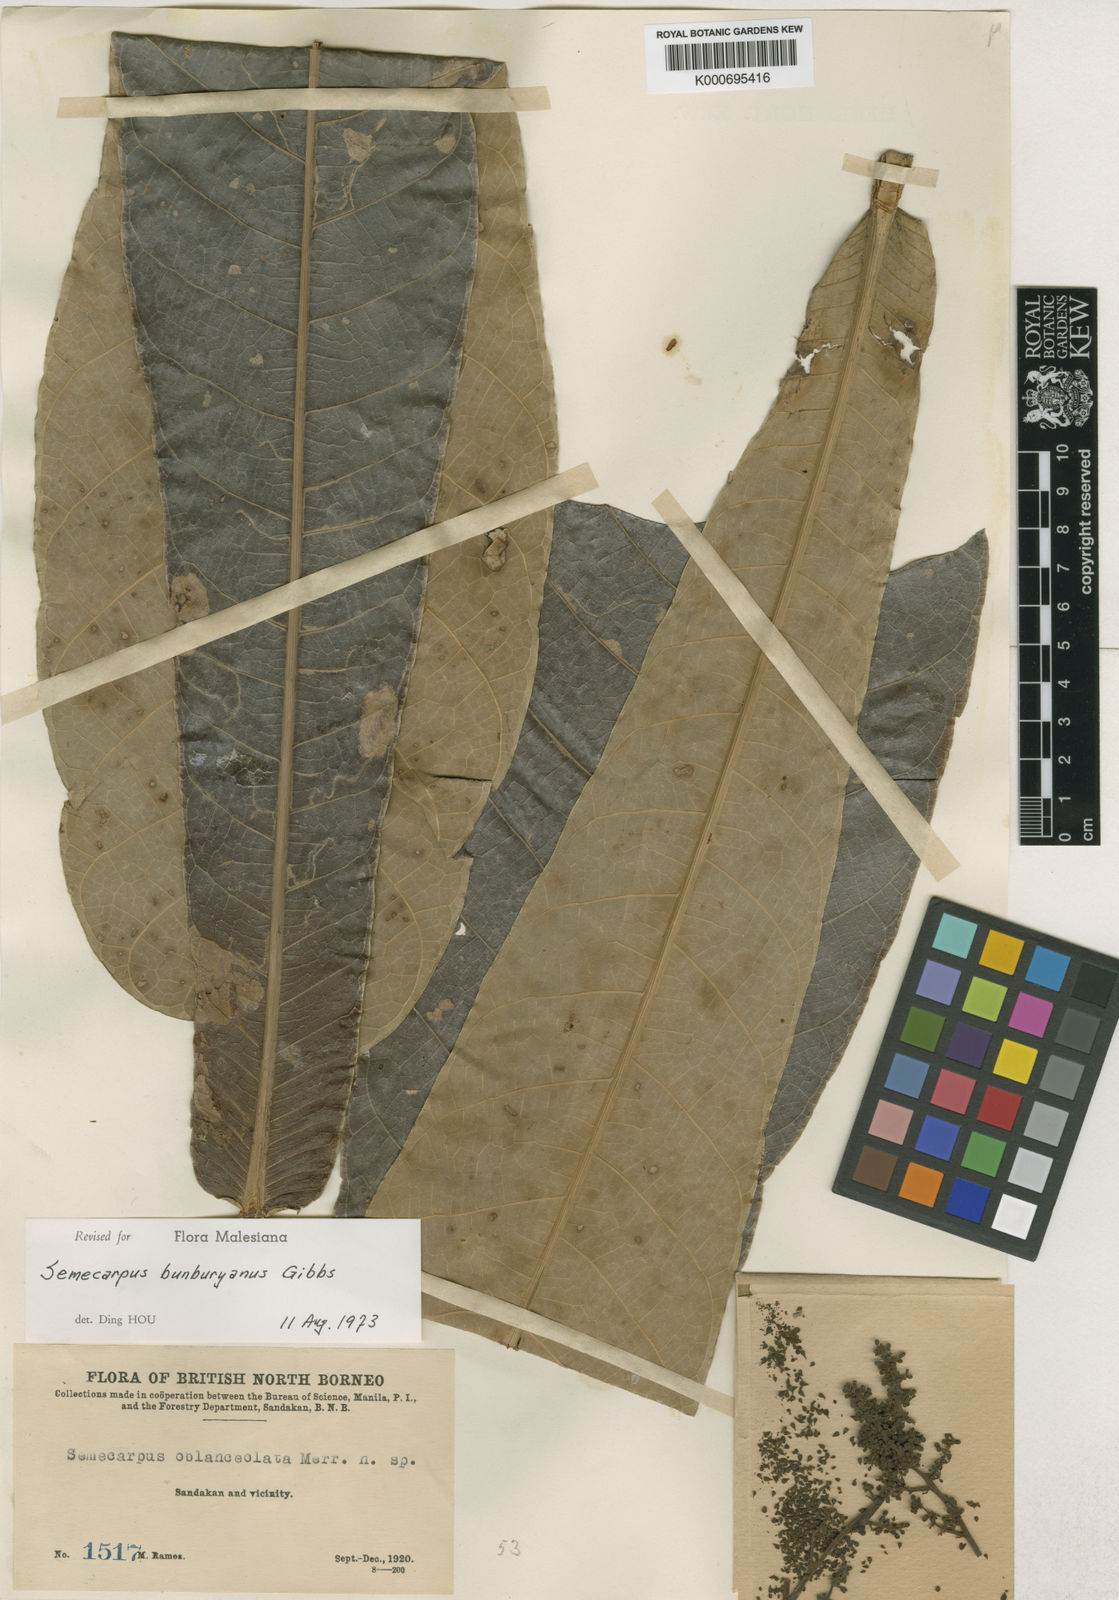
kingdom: Plantae
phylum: Tracheophyta
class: Magnoliopsida
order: Sapindales
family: Anacardiaceae
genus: Semecarpus
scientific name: Semecarpus
